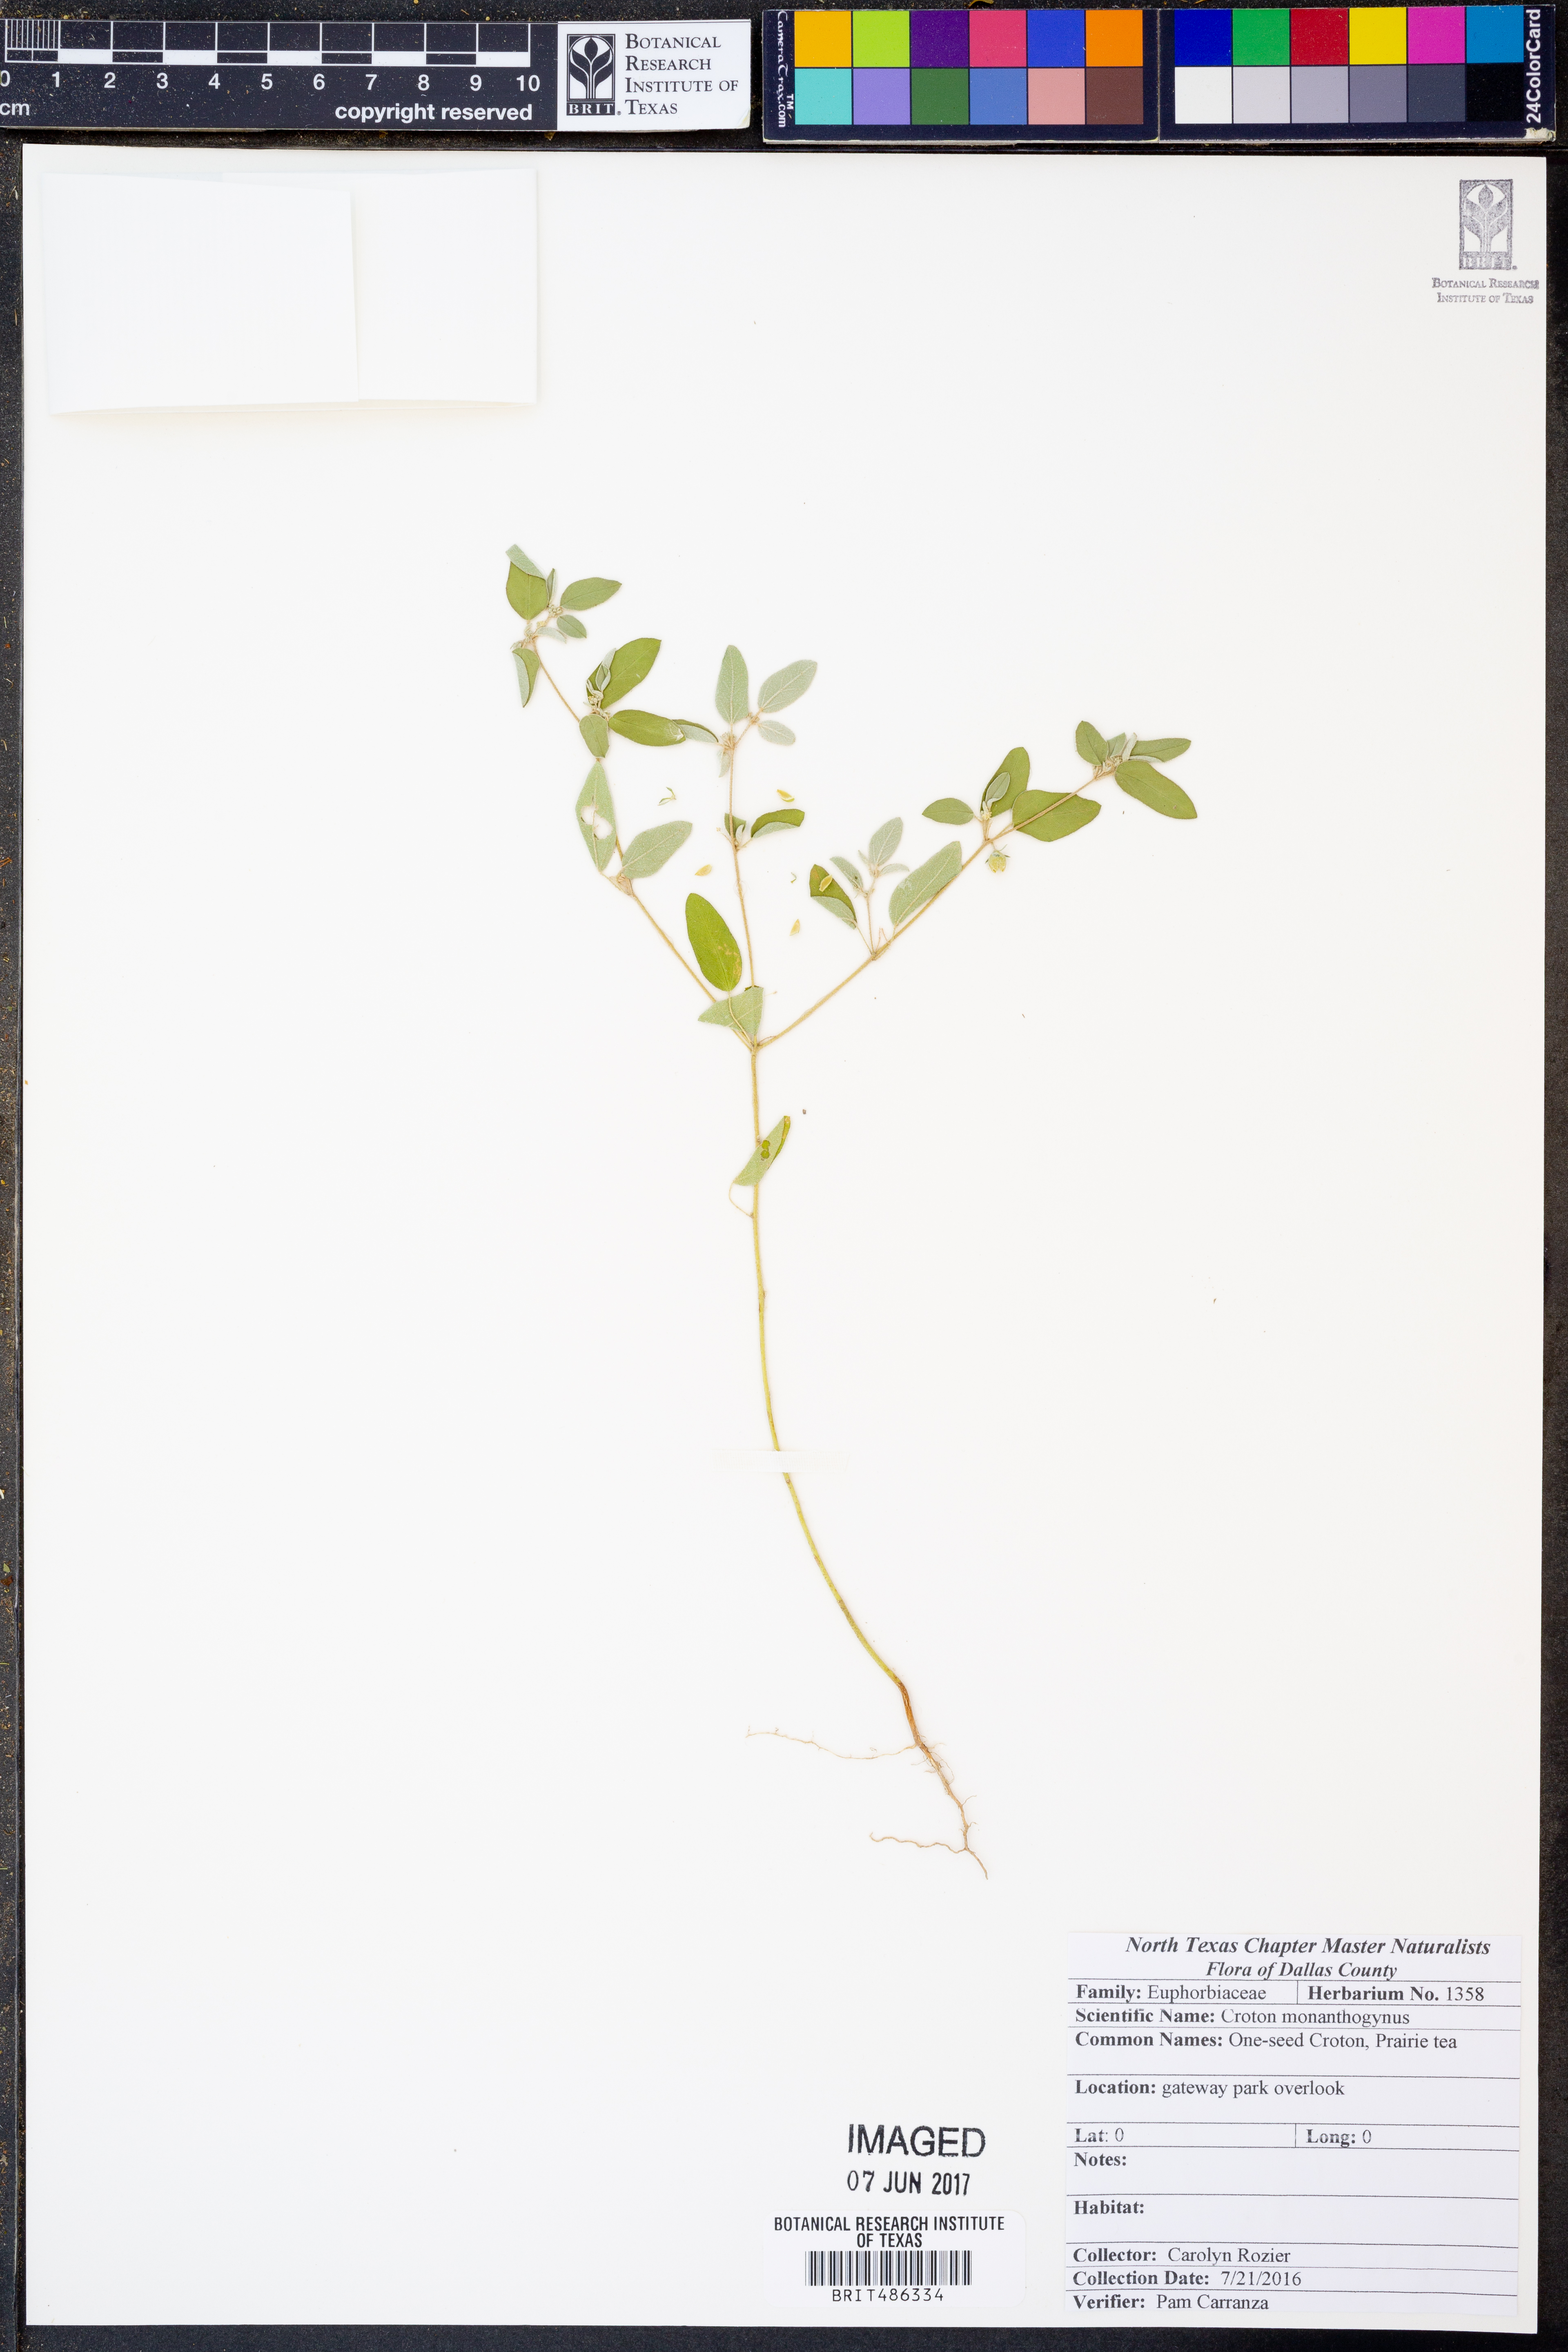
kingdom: Plantae
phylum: Tracheophyta
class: Magnoliopsida
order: Malpighiales
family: Euphorbiaceae
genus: Croton
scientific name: Croton monanthogynus
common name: One-seed croton
